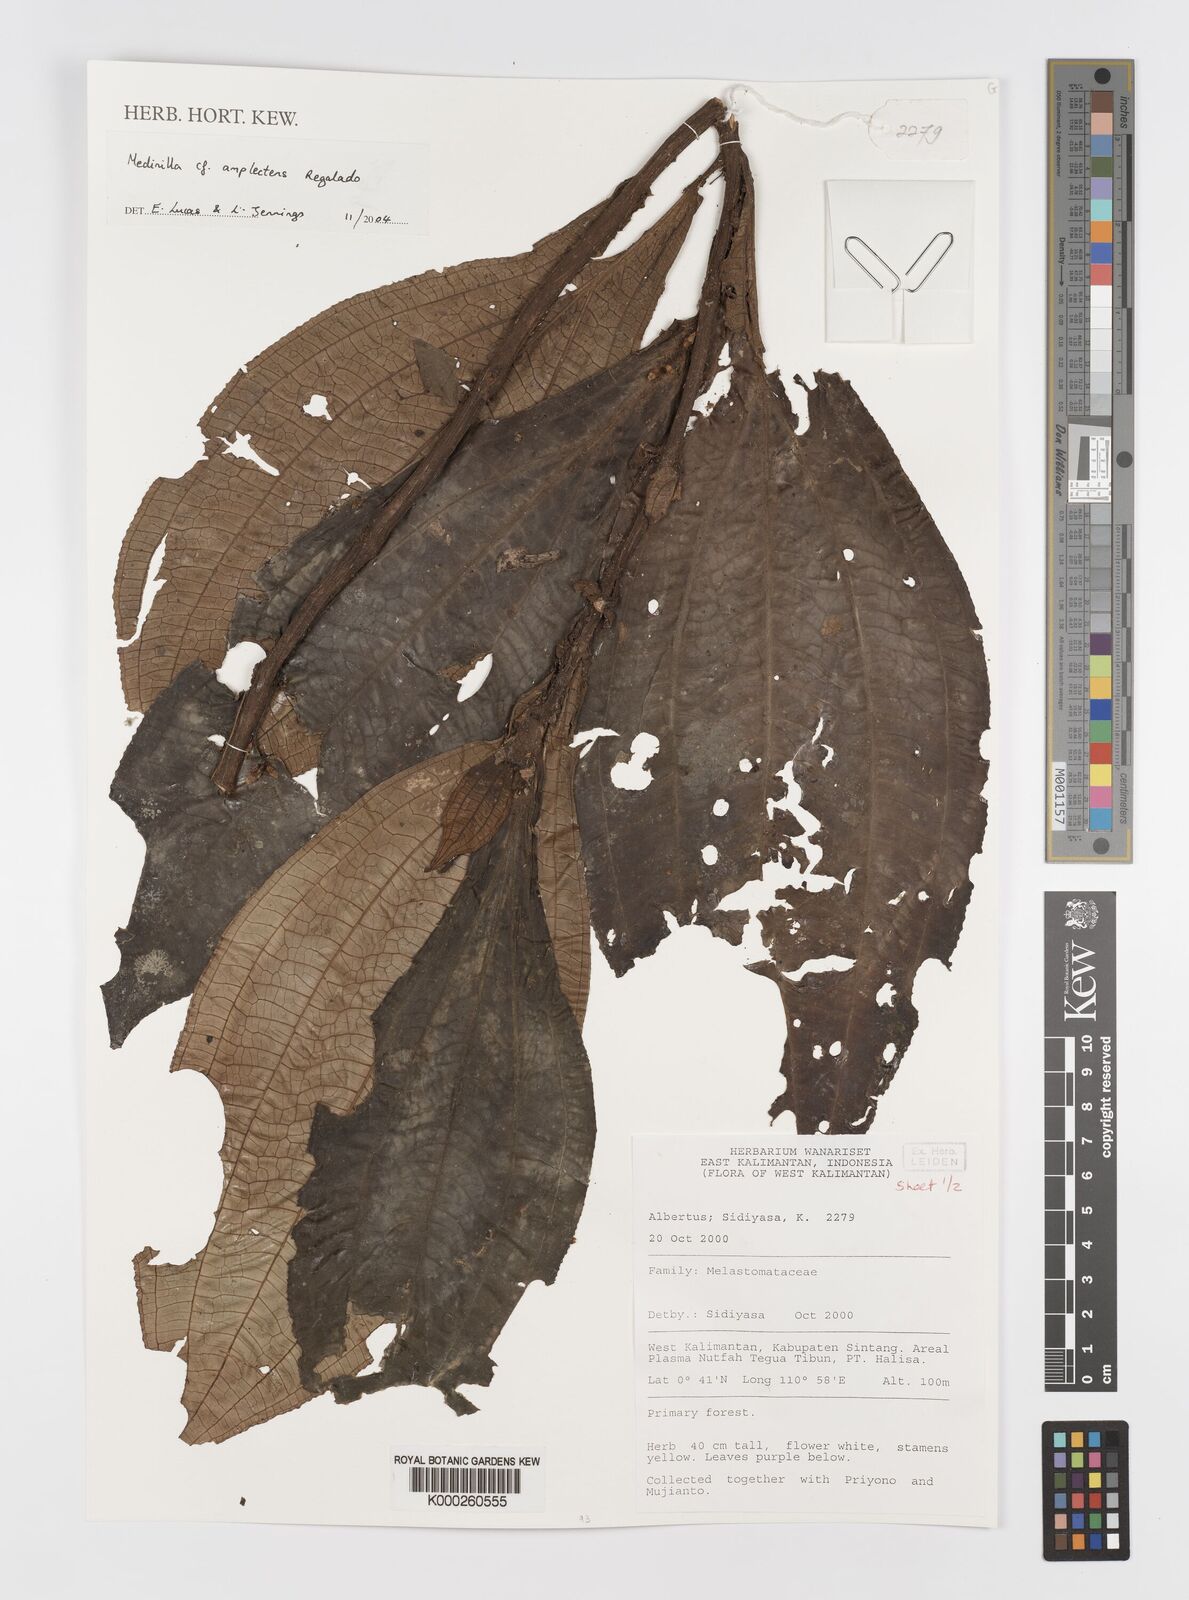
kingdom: Plantae
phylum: Tracheophyta
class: Magnoliopsida
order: Myrtales
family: Melastomataceae
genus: Medinilla
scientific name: Medinilla amplectens
